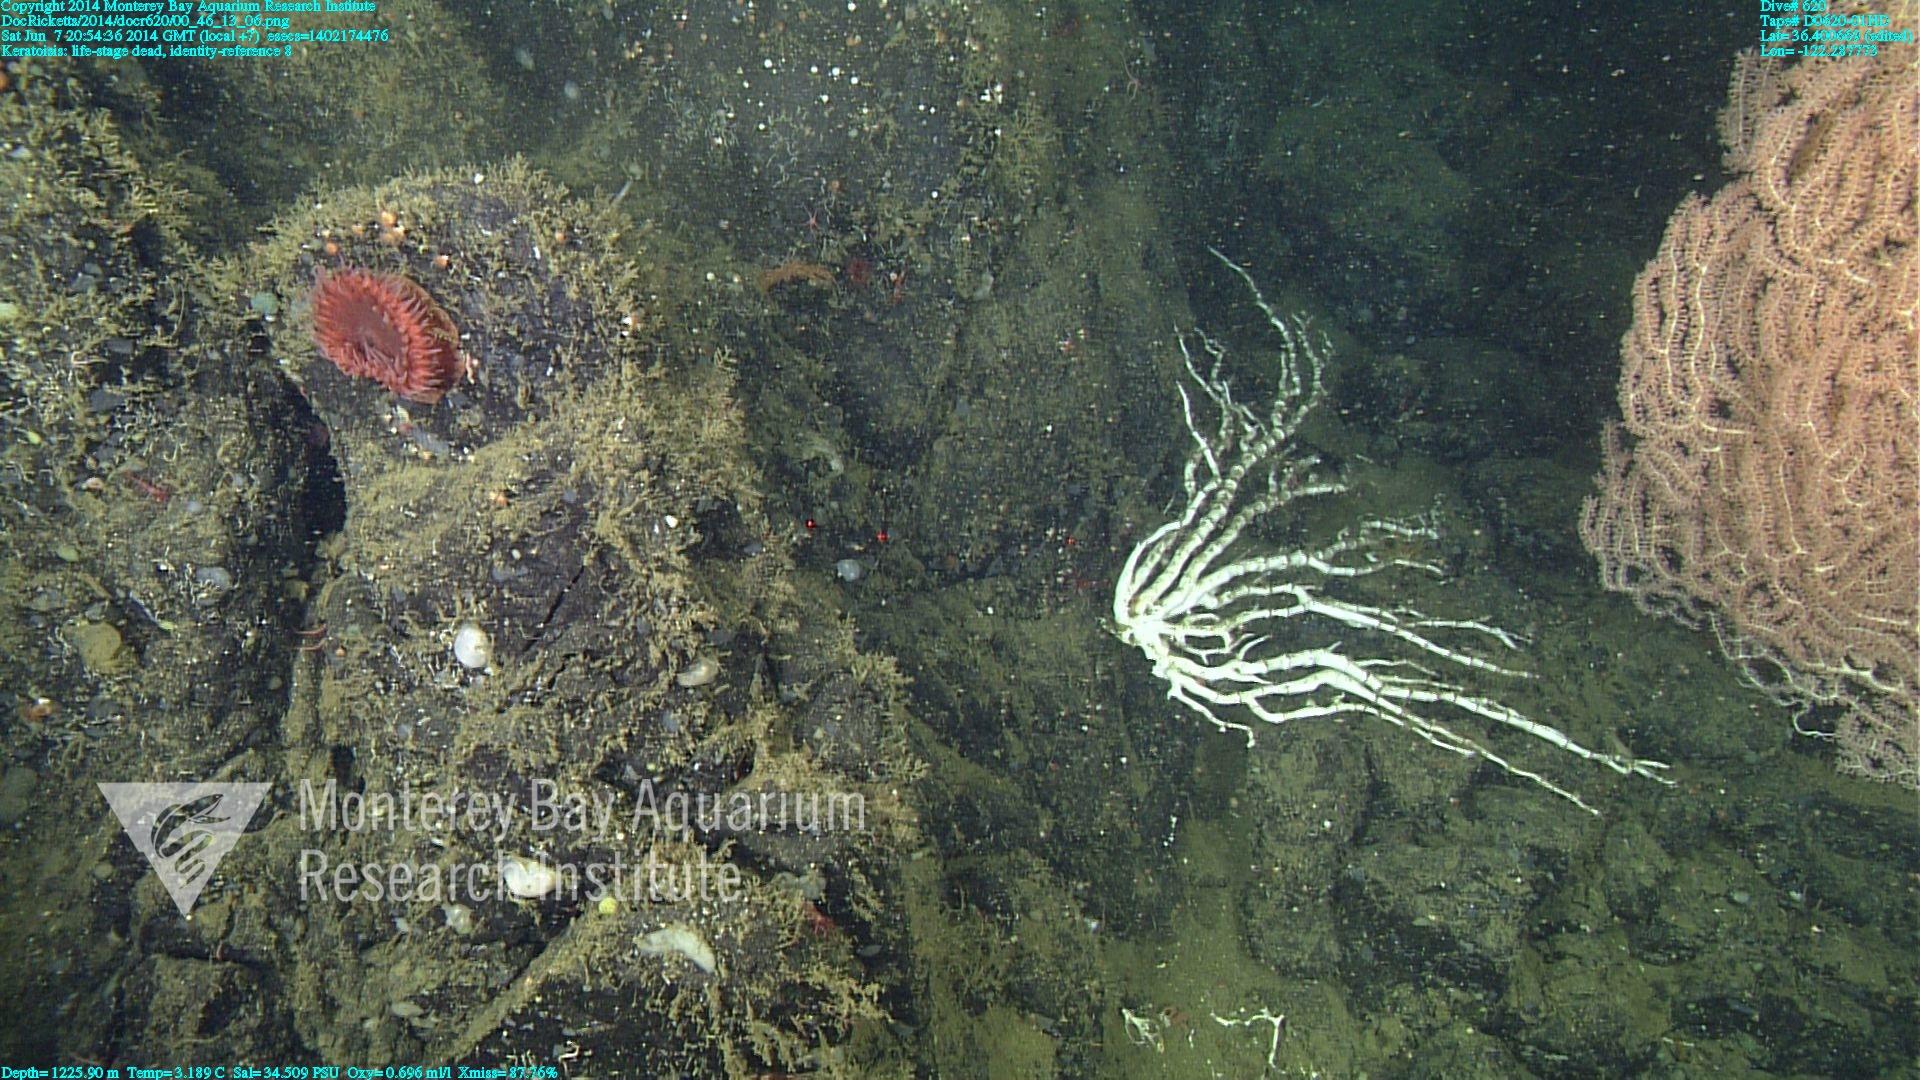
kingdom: Animalia
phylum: Cnidaria
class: Anthozoa
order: Scleralcyonacea
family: Keratoisididae
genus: Keratoisis
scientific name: Keratoisis
